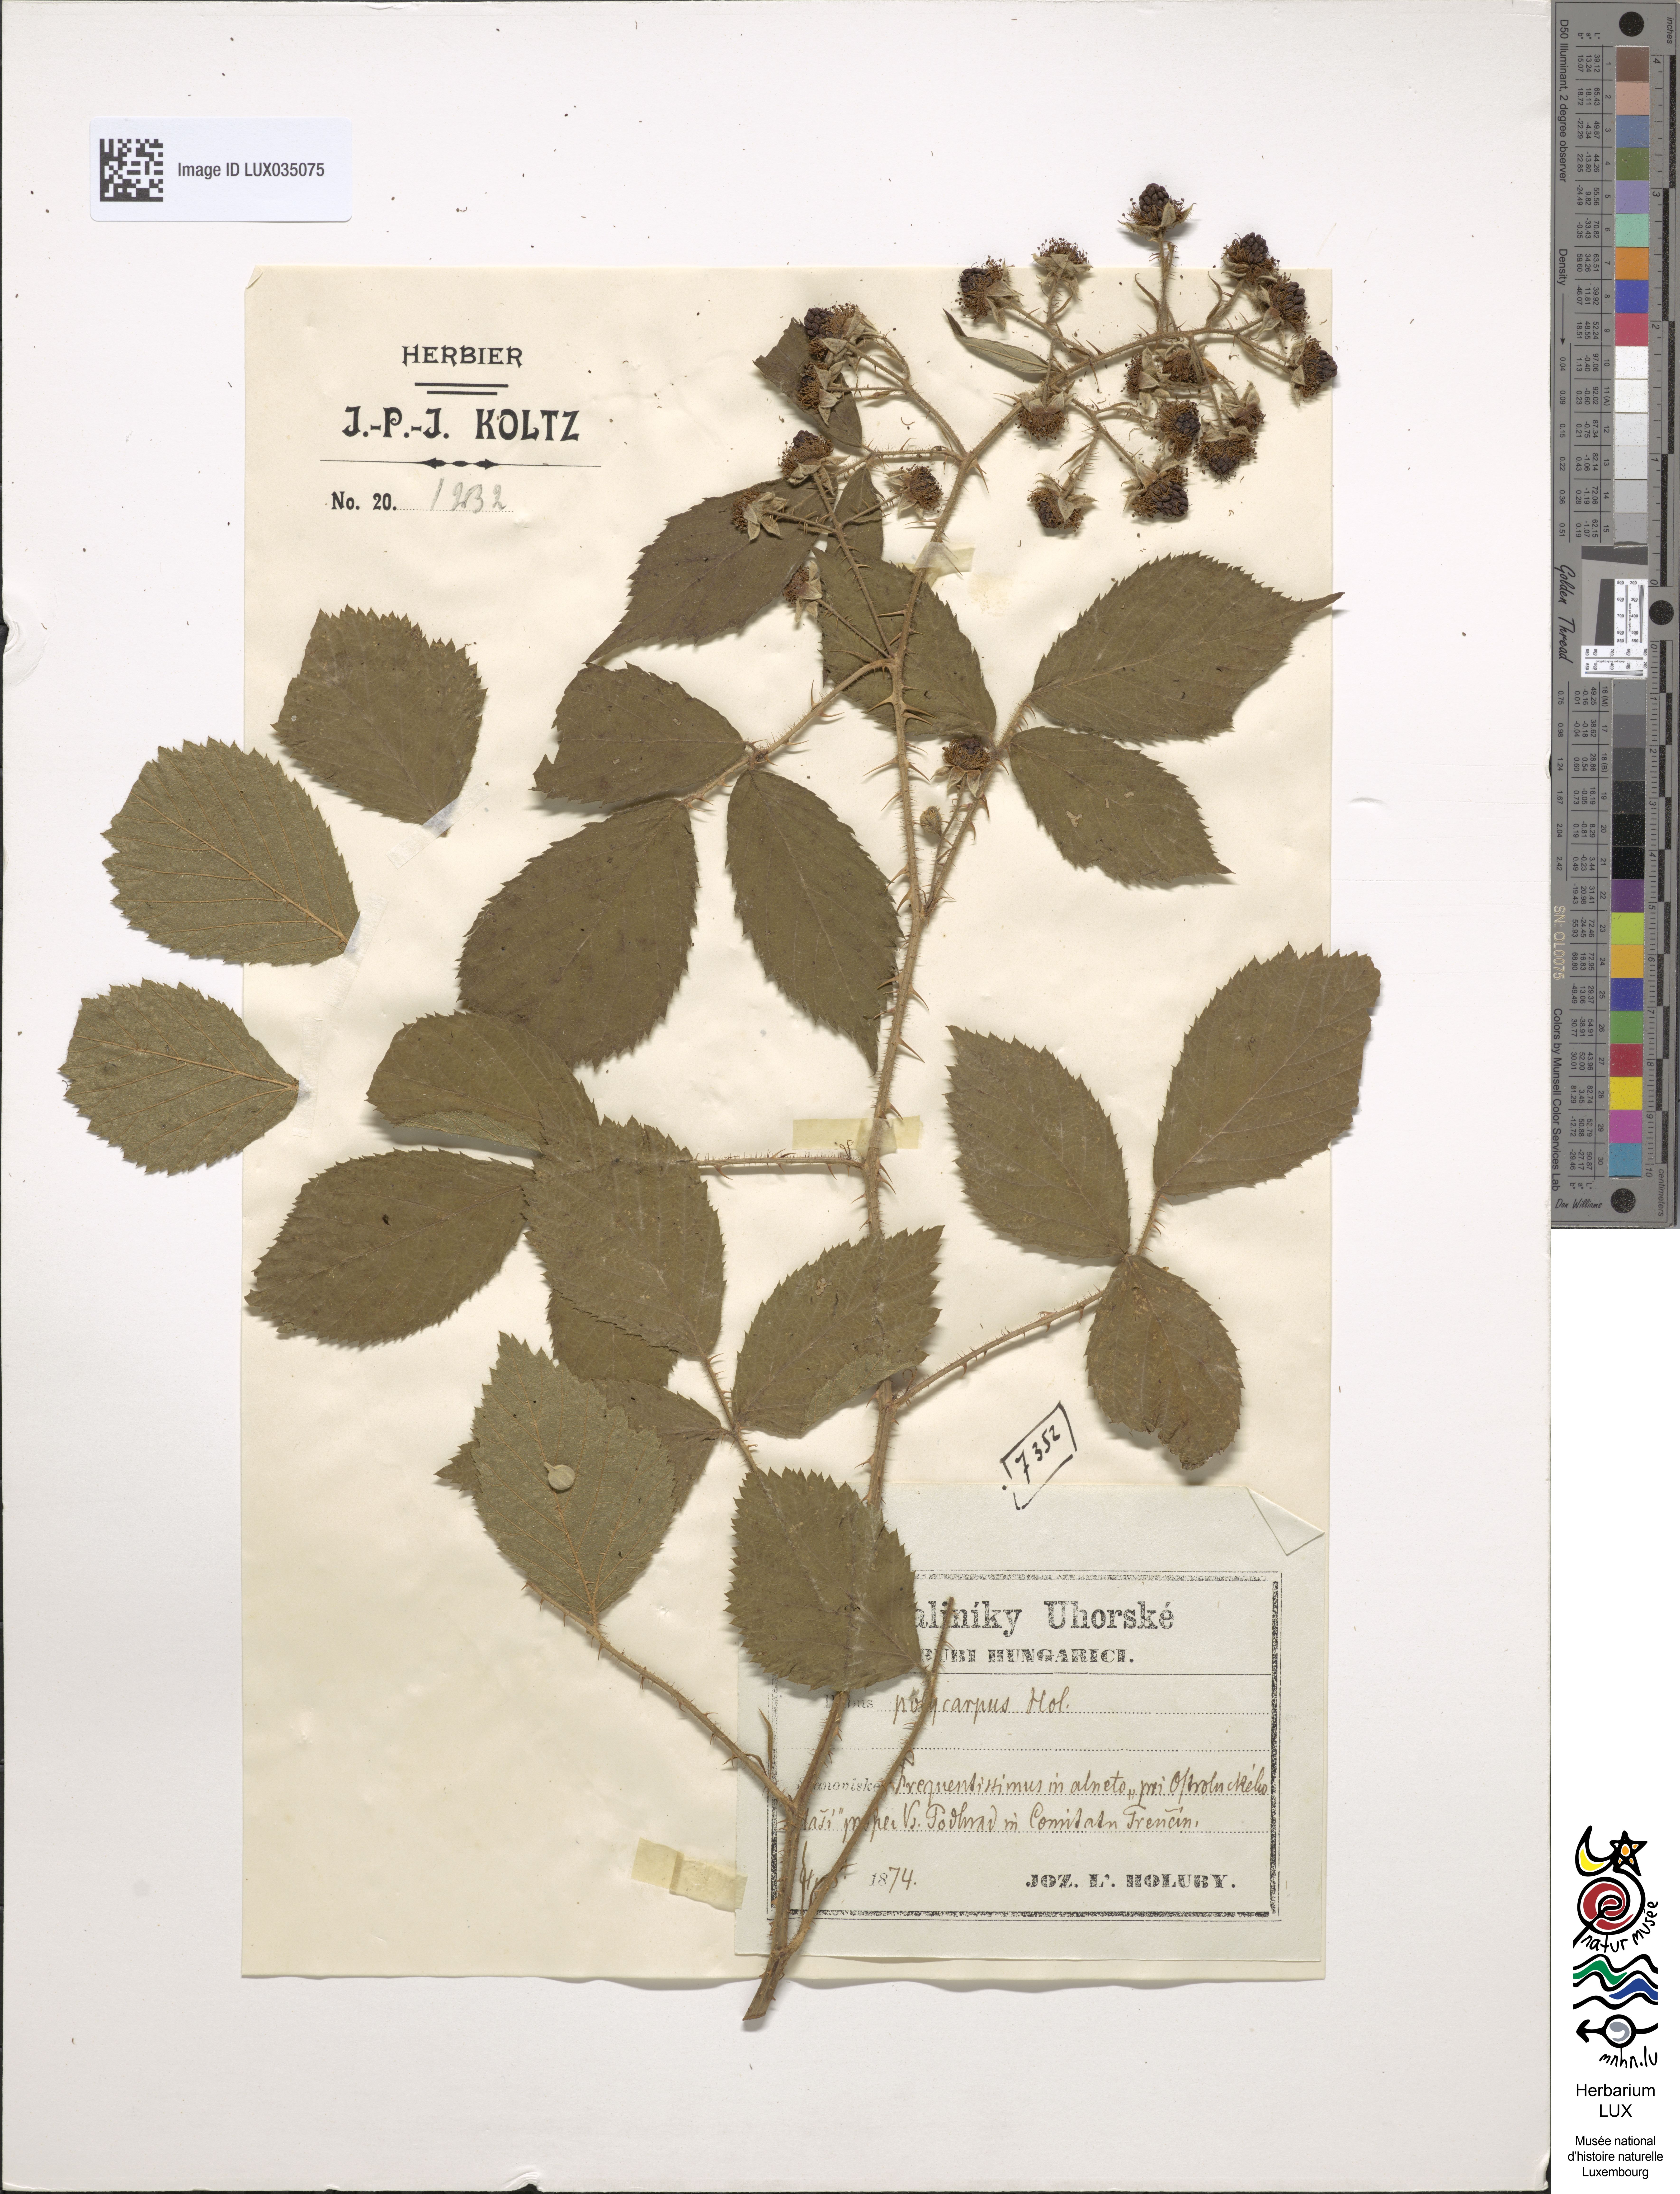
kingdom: Plantae
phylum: Tracheophyta
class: Magnoliopsida
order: Rosales
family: Rosaceae
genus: Rubus
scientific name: Rubus micans
